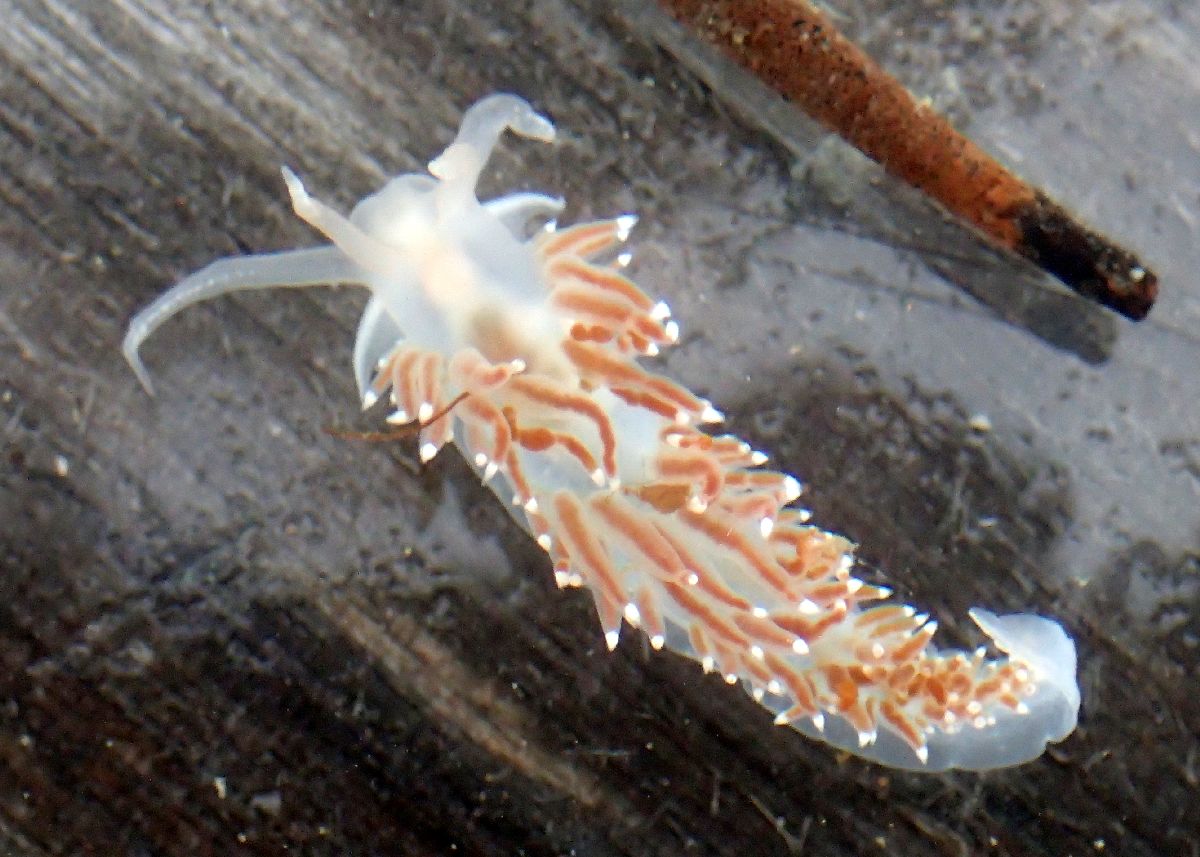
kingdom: Animalia
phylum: Mollusca
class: Gastropoda
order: Nudibranchia
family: Coryphellidae
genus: Coryphella
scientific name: Coryphella verrucosa
